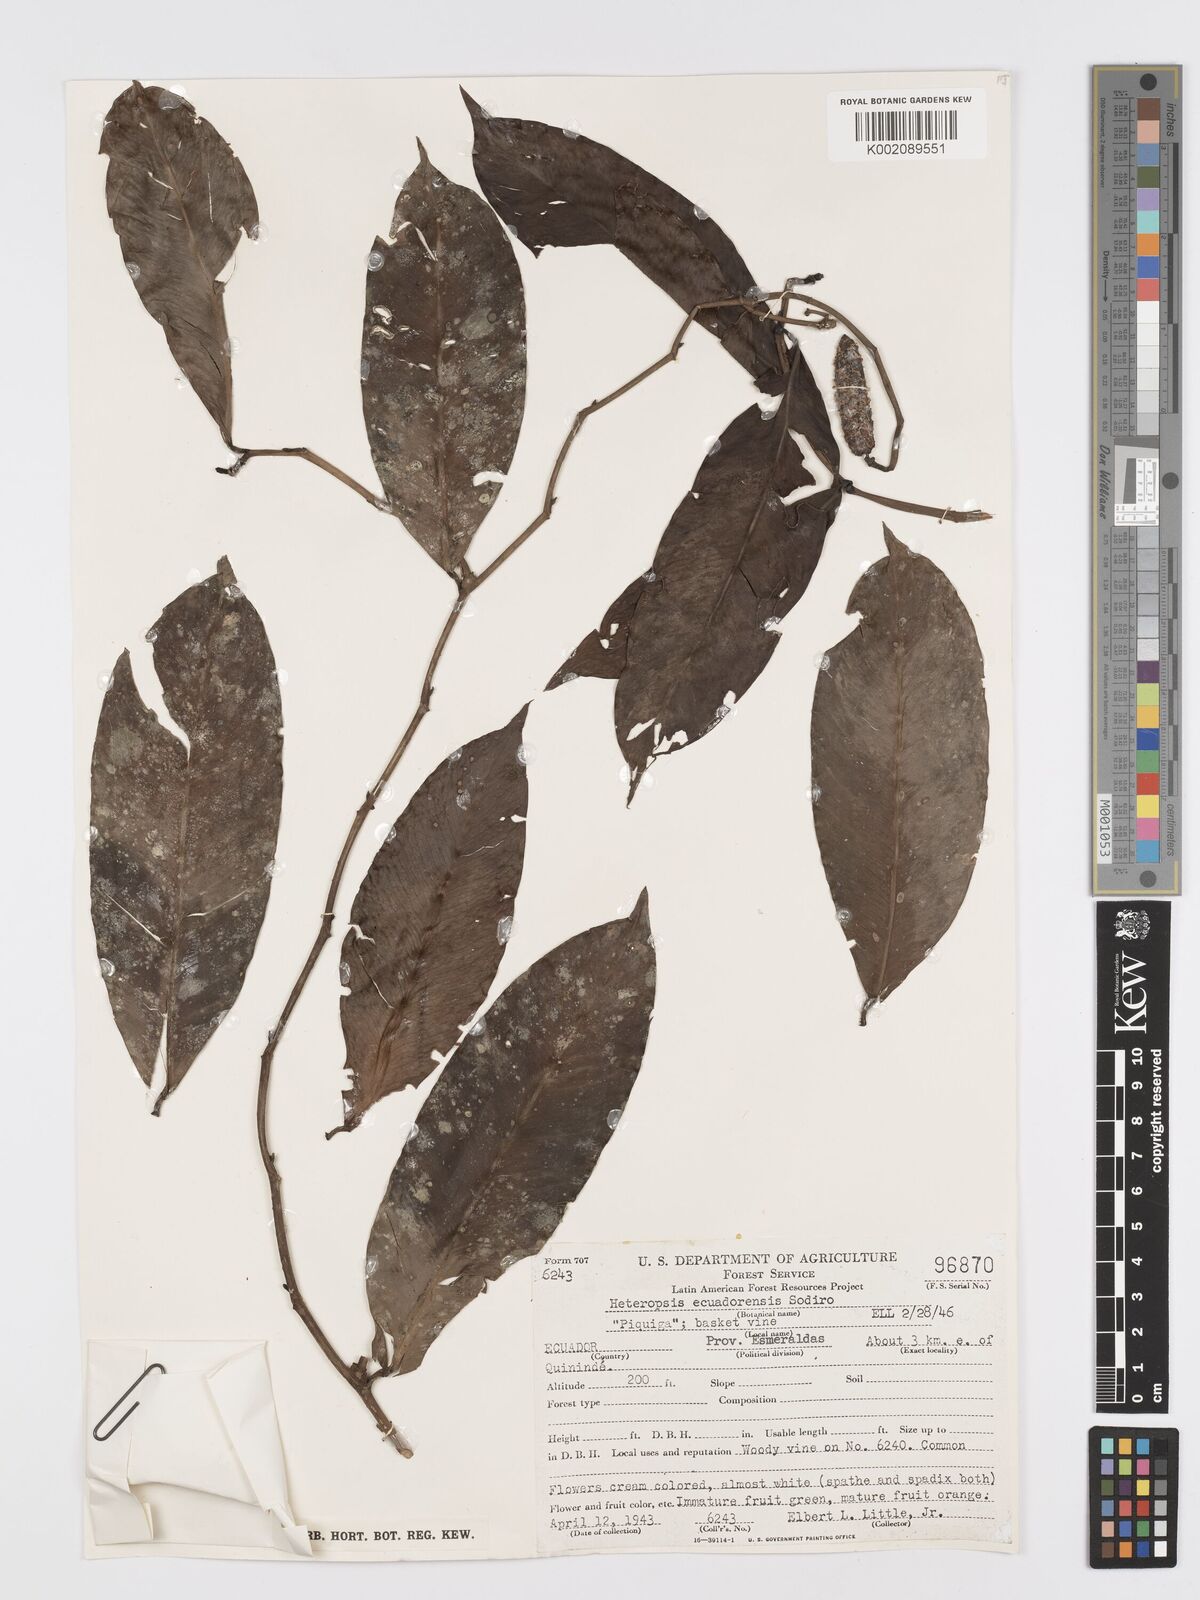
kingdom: Plantae
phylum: Tracheophyta
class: Liliopsida
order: Alismatales
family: Araceae
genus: Heteropsis
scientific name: Heteropsis ecuadorensis
